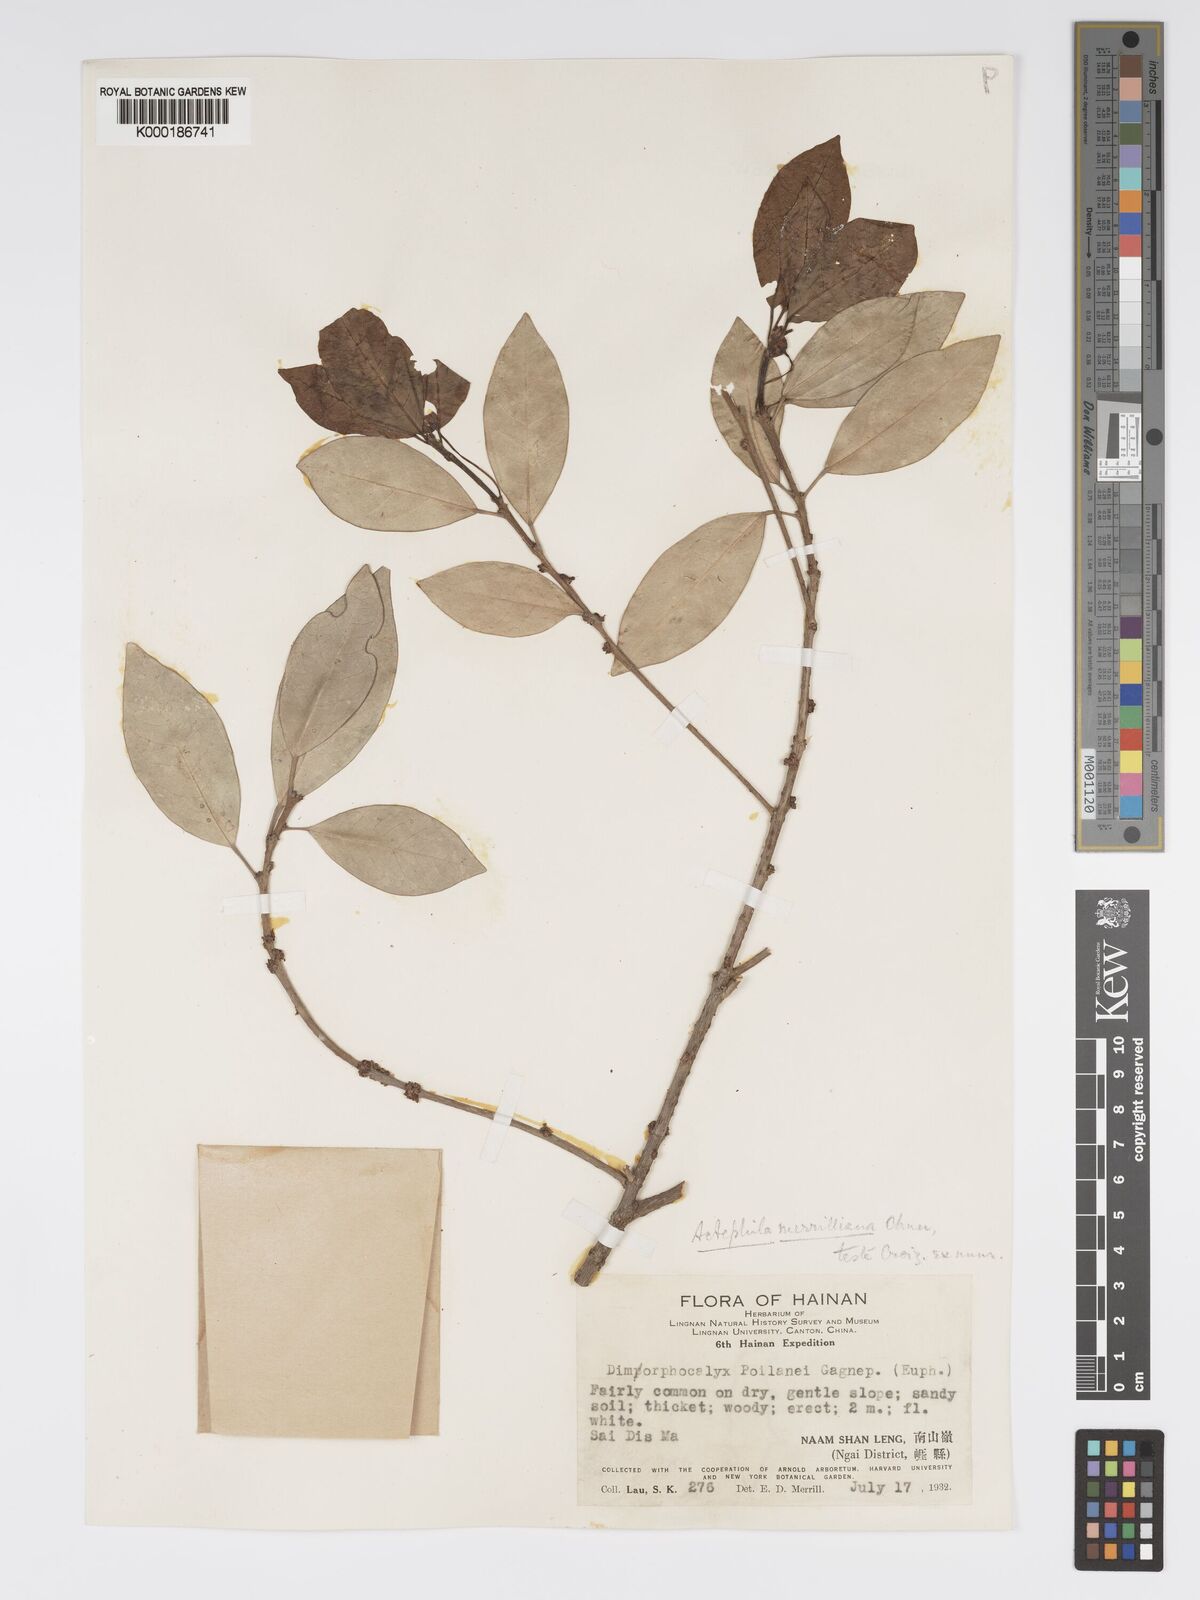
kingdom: Plantae
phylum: Tracheophyta
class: Magnoliopsida
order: Malpighiales
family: Phyllanthaceae
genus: Actephila
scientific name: Actephila merrilliana
